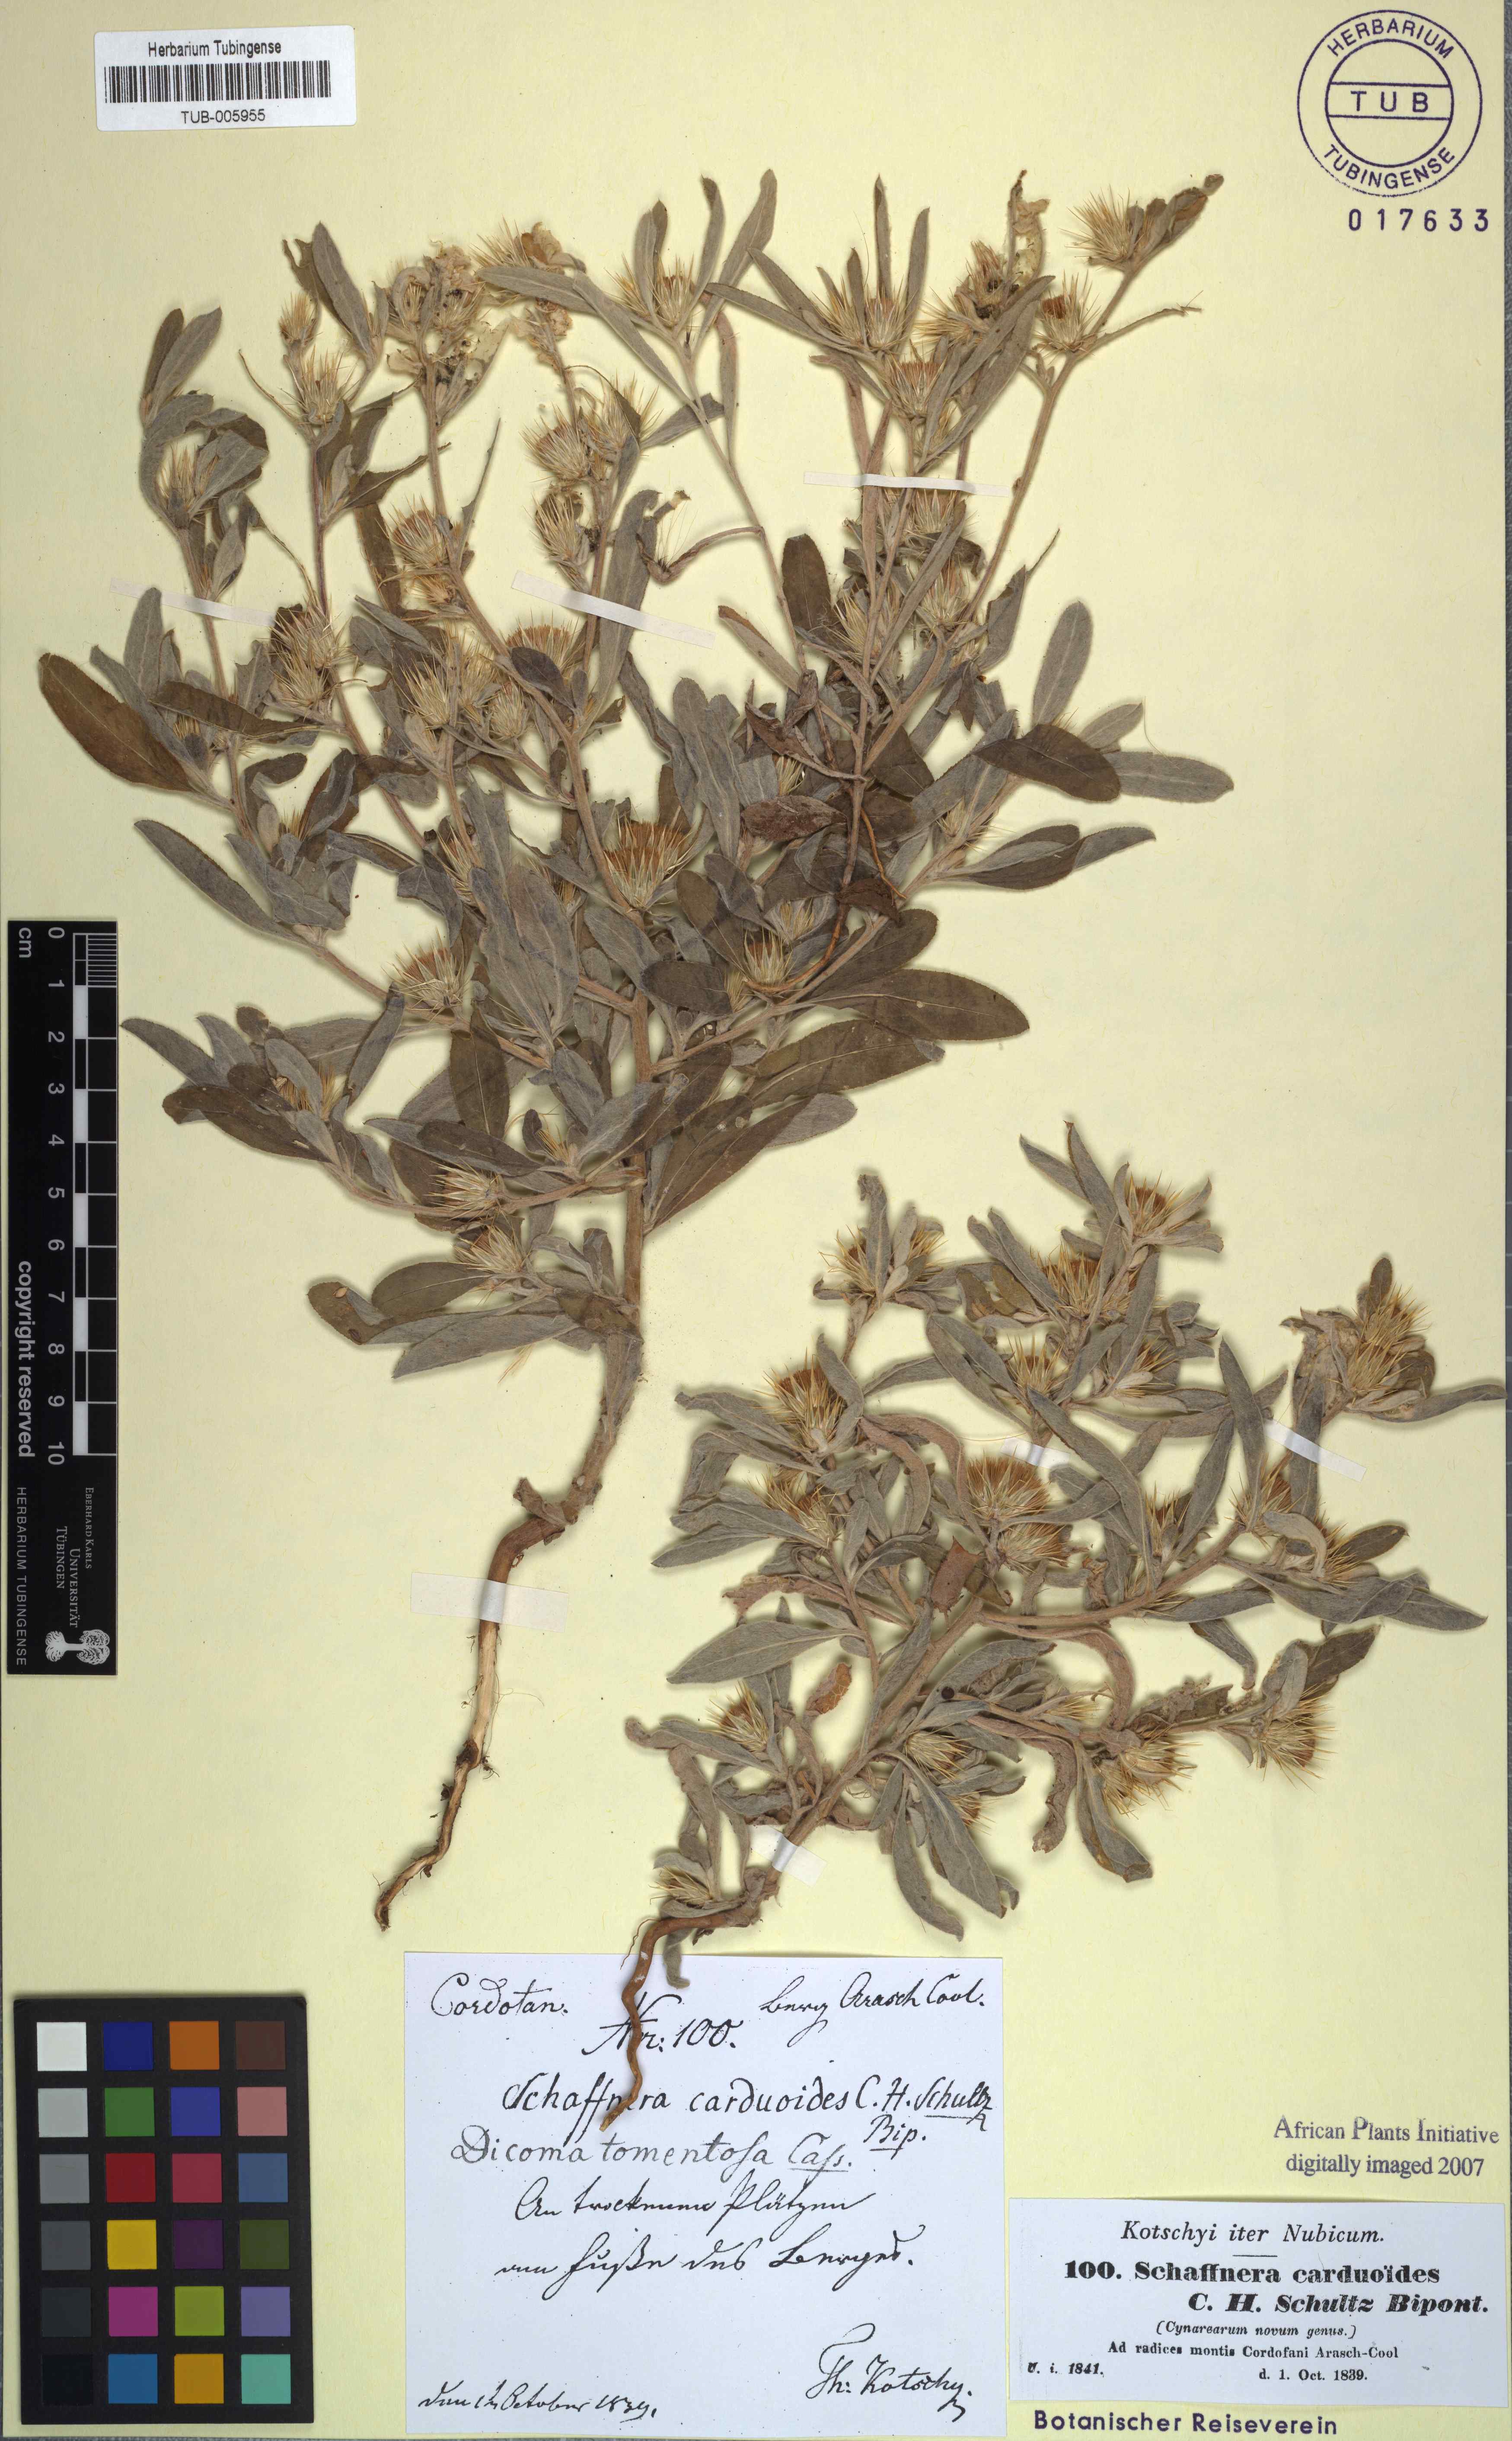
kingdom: Plantae
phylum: Tracheophyta
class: Magnoliopsida
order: Asterales
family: Asteraceae
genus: Dicoma
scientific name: Dicoma tomentosa
